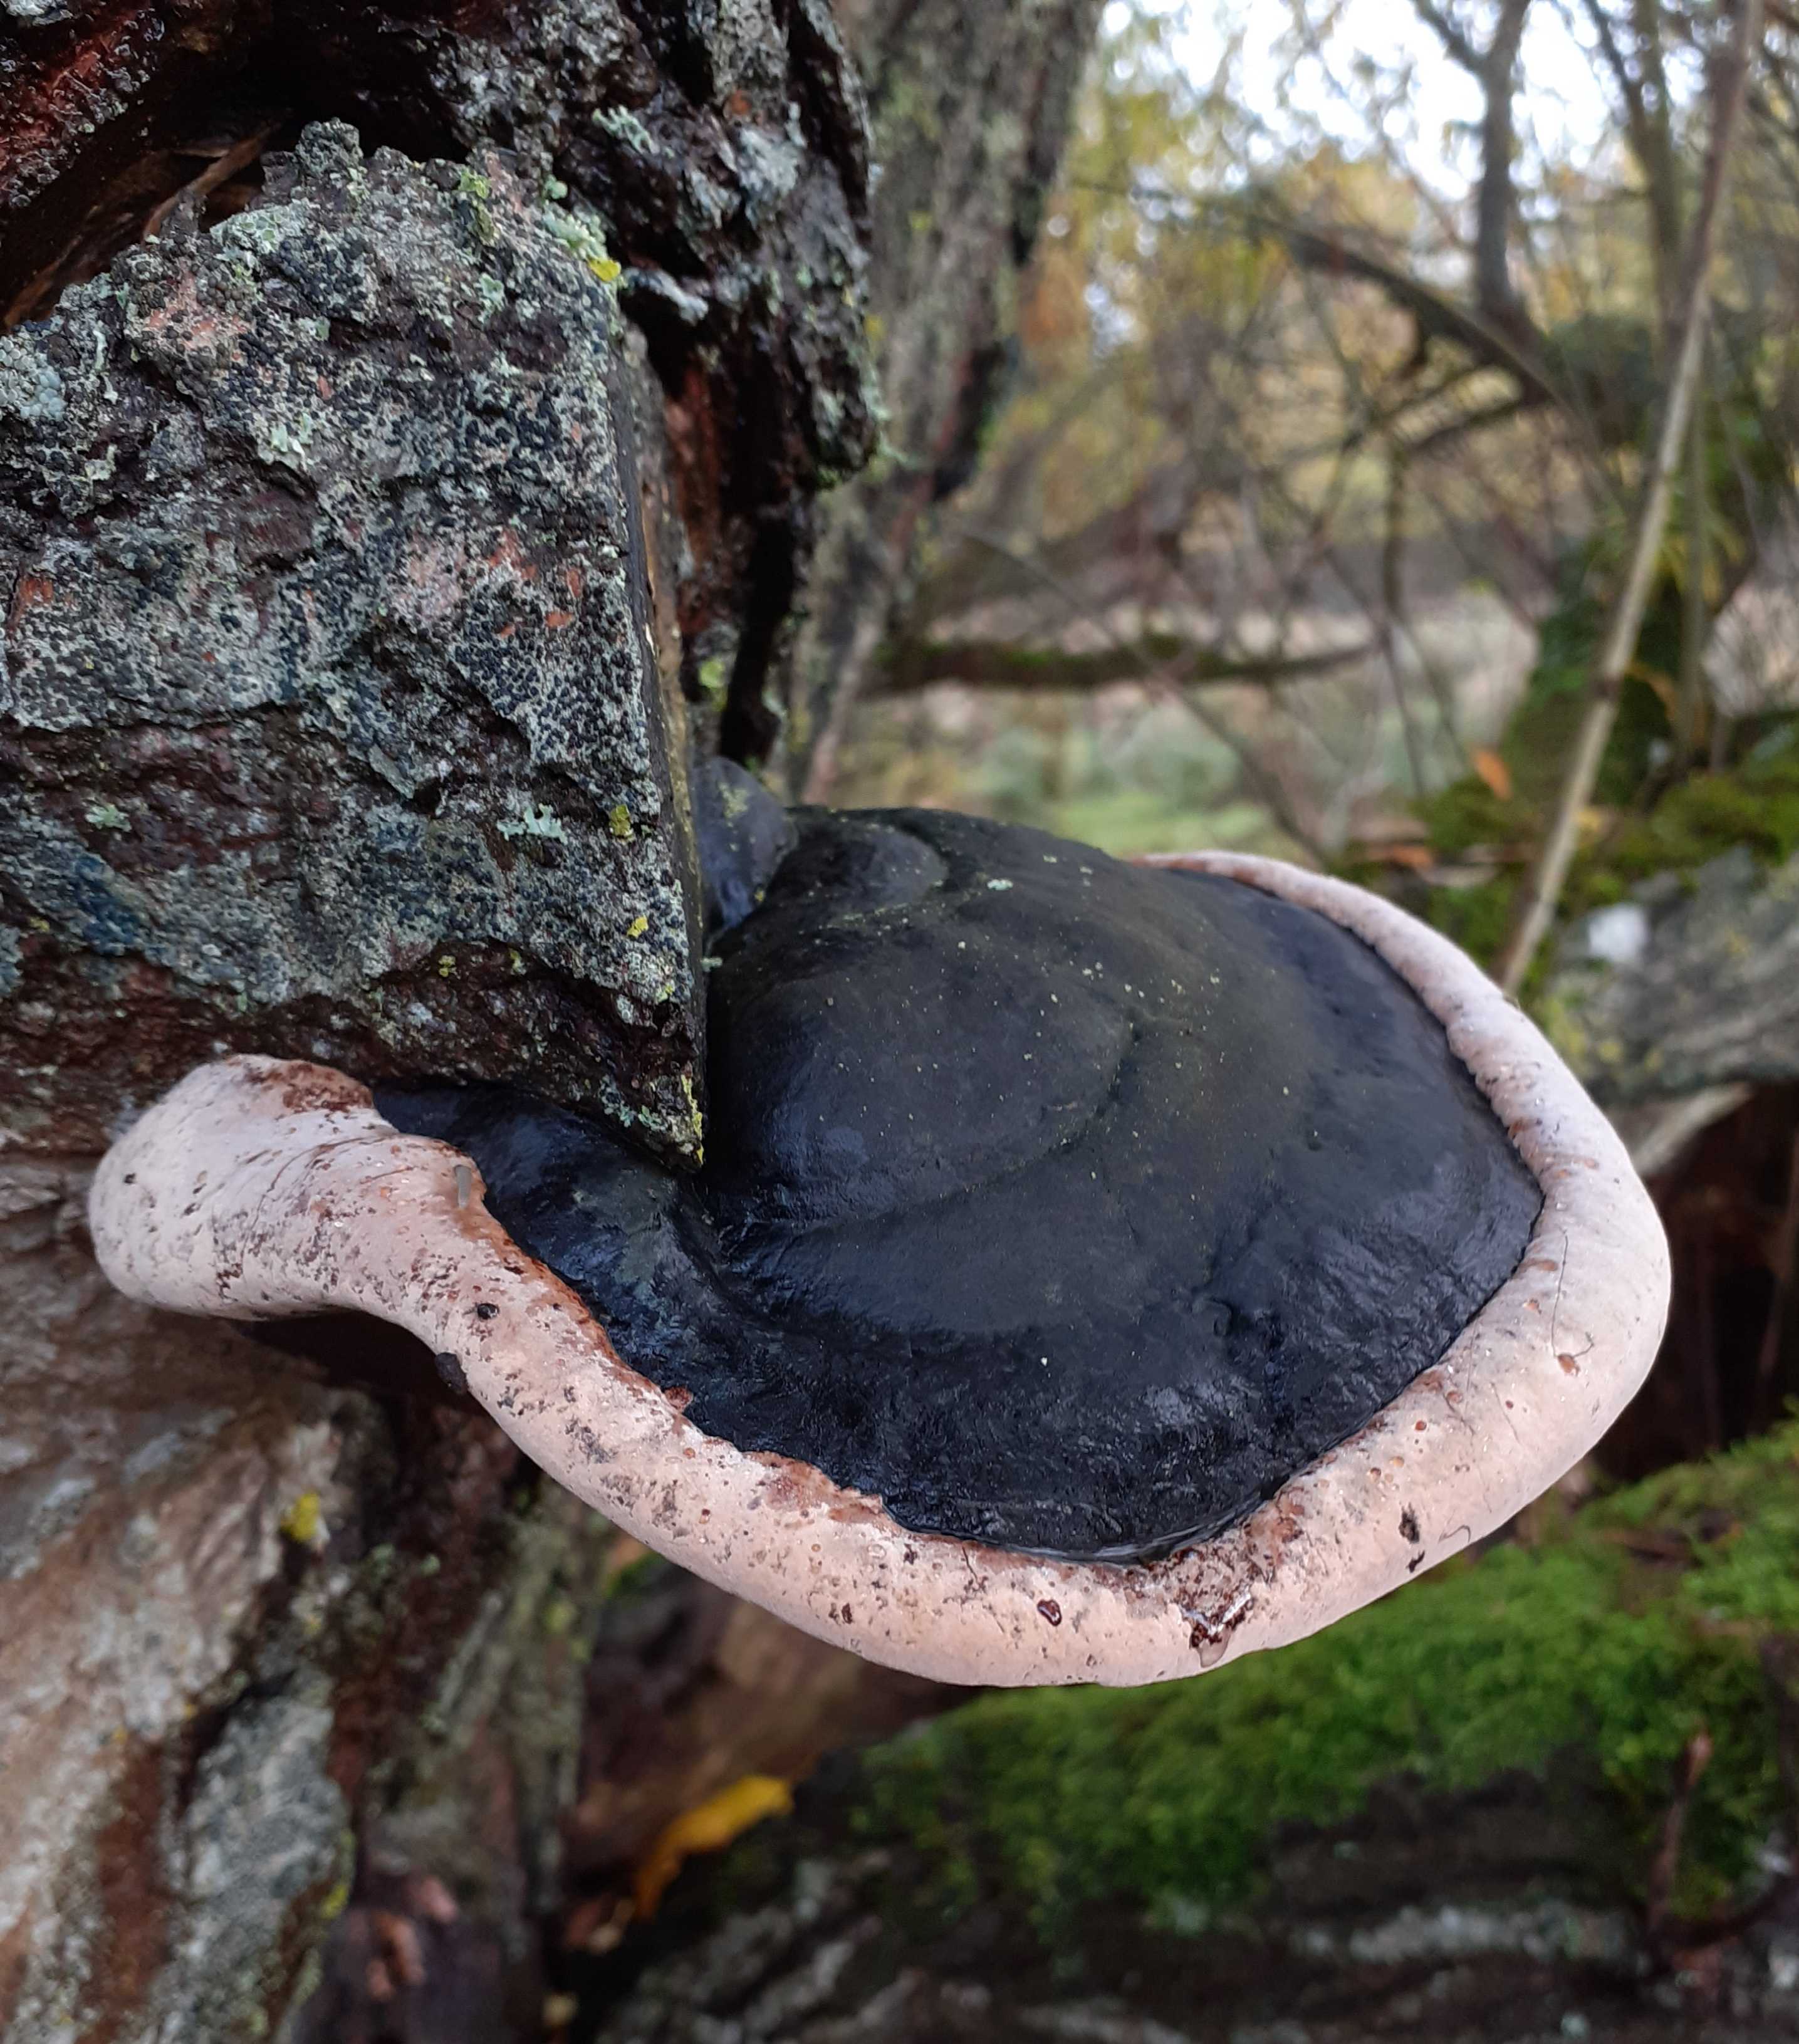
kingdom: Fungi
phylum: Basidiomycota
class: Agaricomycetes
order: Hymenochaetales
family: Hymenochaetaceae
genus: Phellinus
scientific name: Phellinus igniarius
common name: almindelig ildporesvamp
